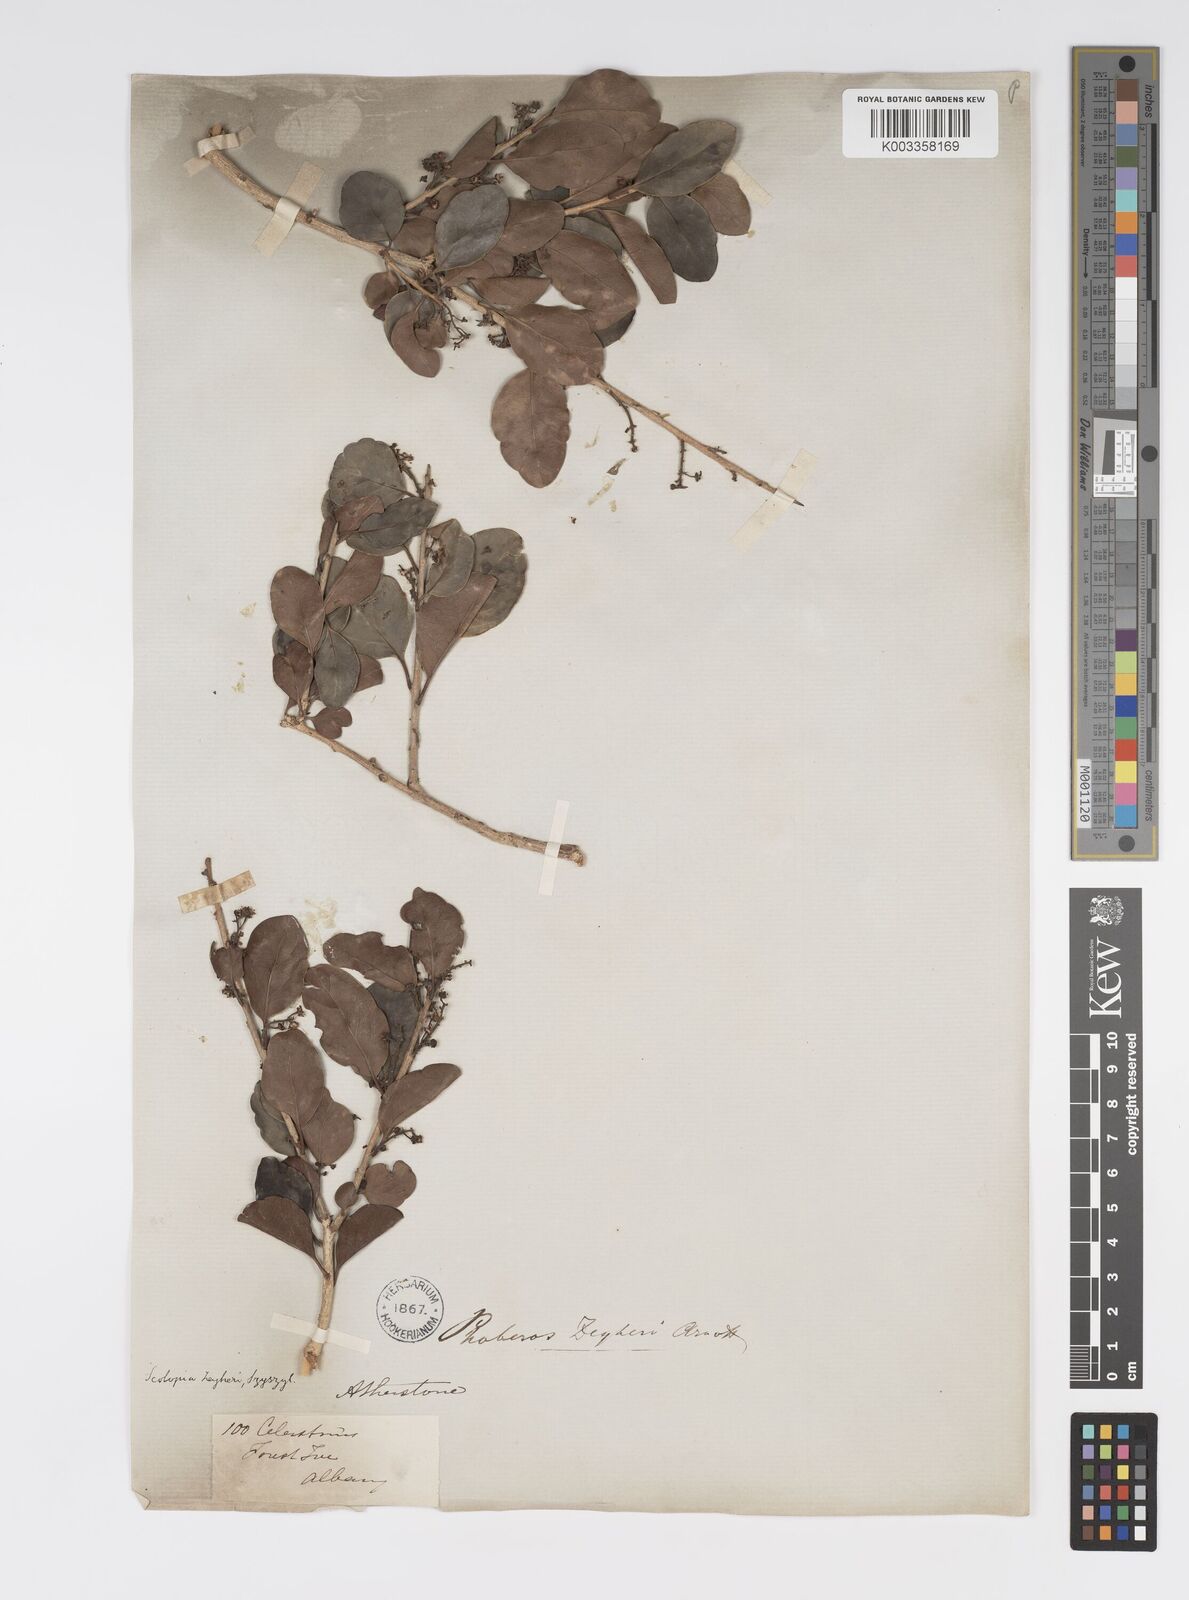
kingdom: Plantae
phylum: Tracheophyta
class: Magnoliopsida
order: Malpighiales
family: Salicaceae
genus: Scolopia
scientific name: Scolopia zeyheri
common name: Thorn pear
